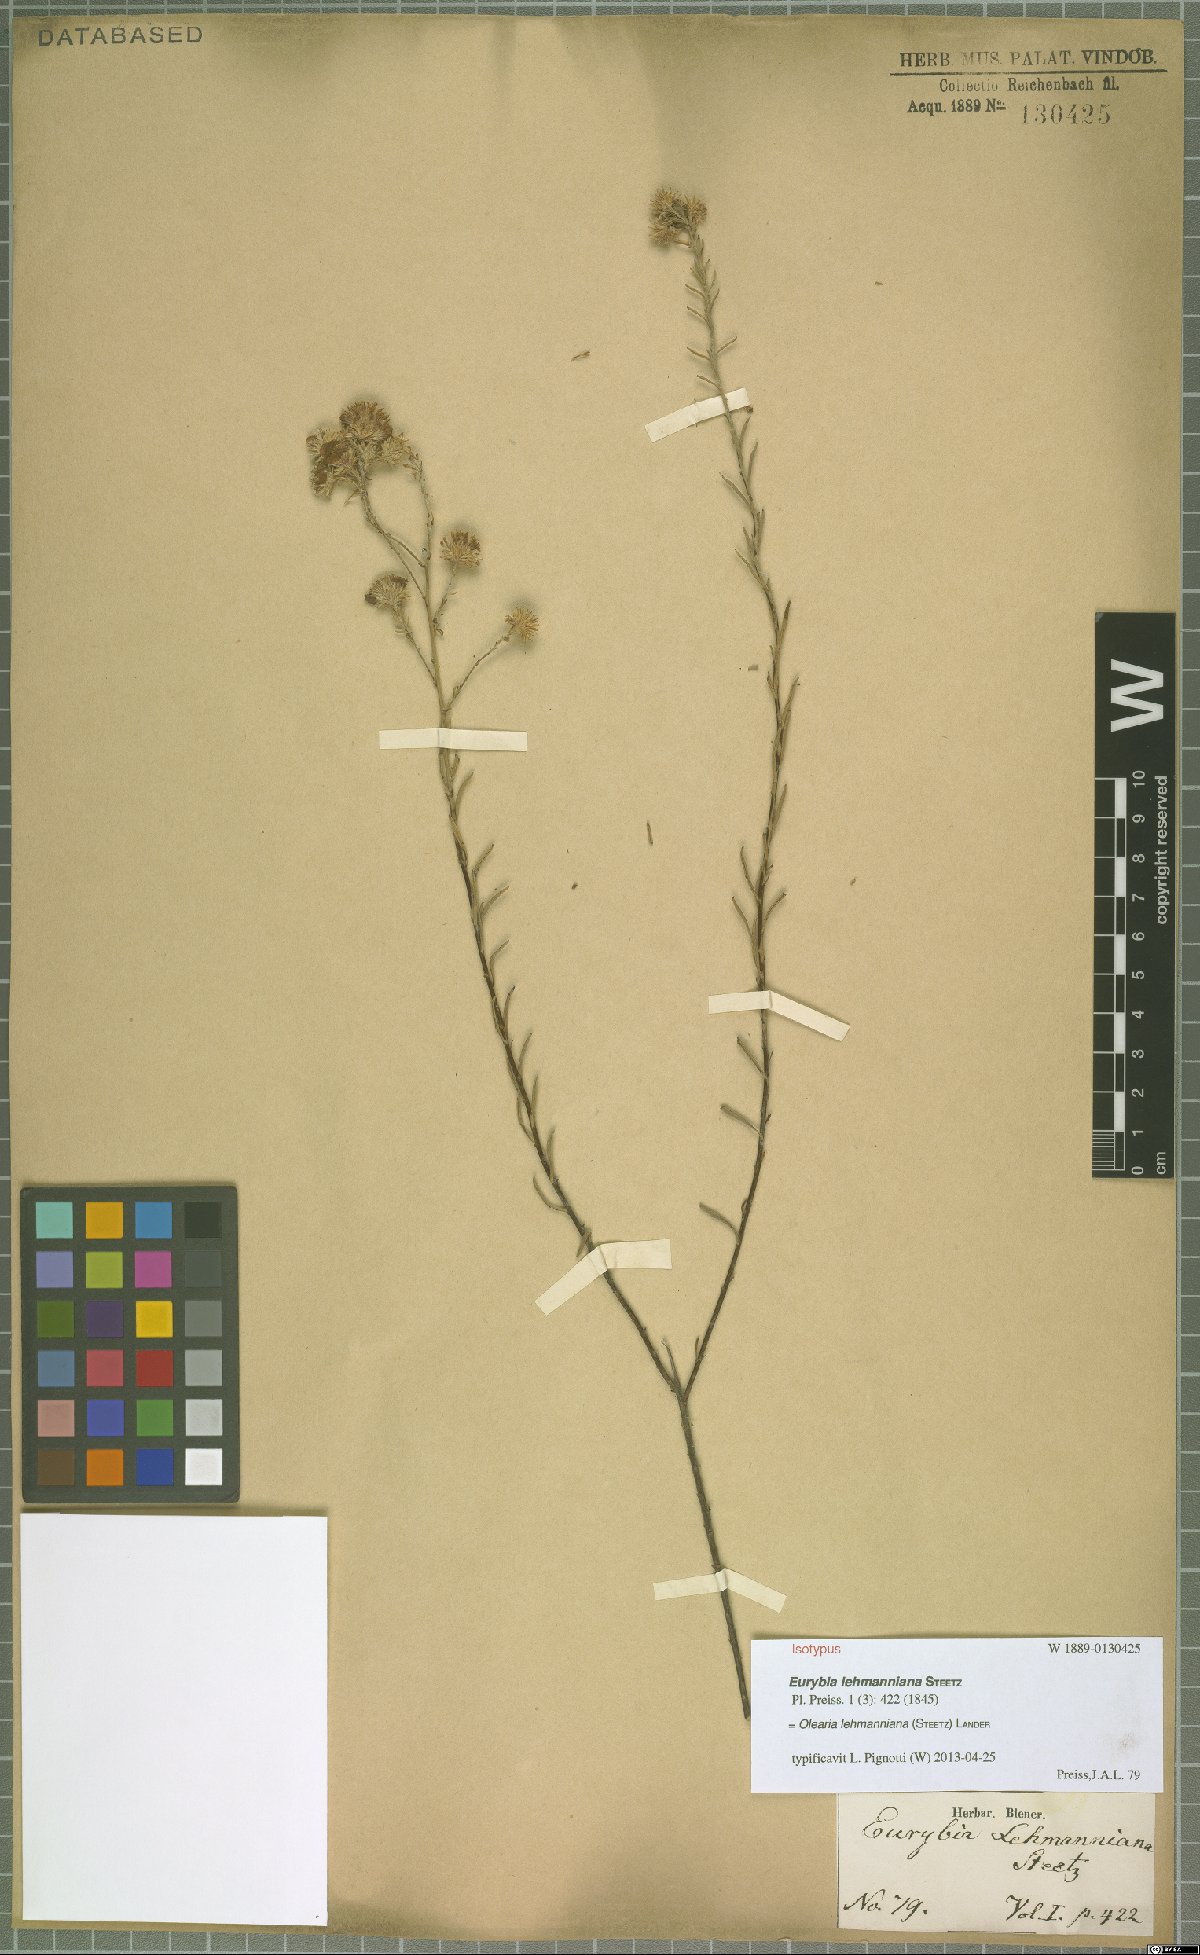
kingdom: Plantae
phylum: Tracheophyta
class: Magnoliopsida
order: Asterales
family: Asteraceae
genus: Olearia
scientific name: Olearia lehmanniana
